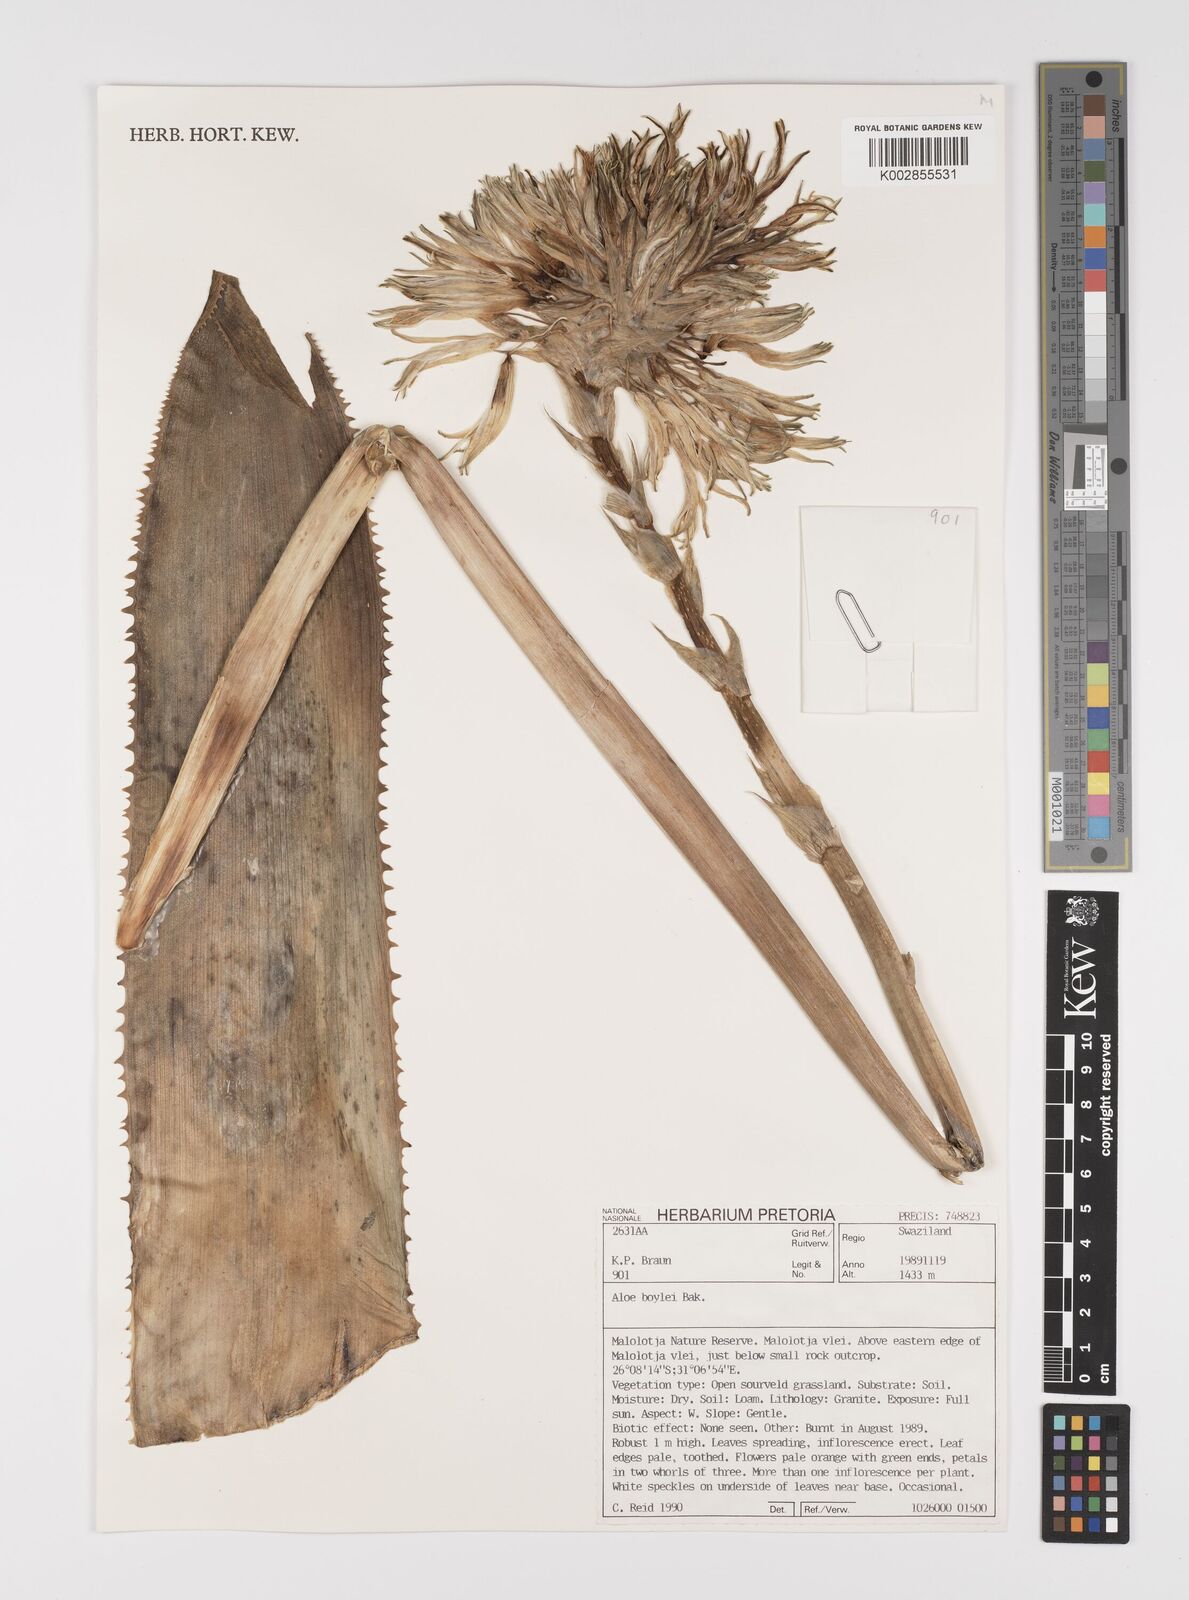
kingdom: Plantae
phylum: Tracheophyta
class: Liliopsida
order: Asparagales
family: Asphodelaceae
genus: Aloe
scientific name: Aloe boylei
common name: Broad-leaved grass aloe
